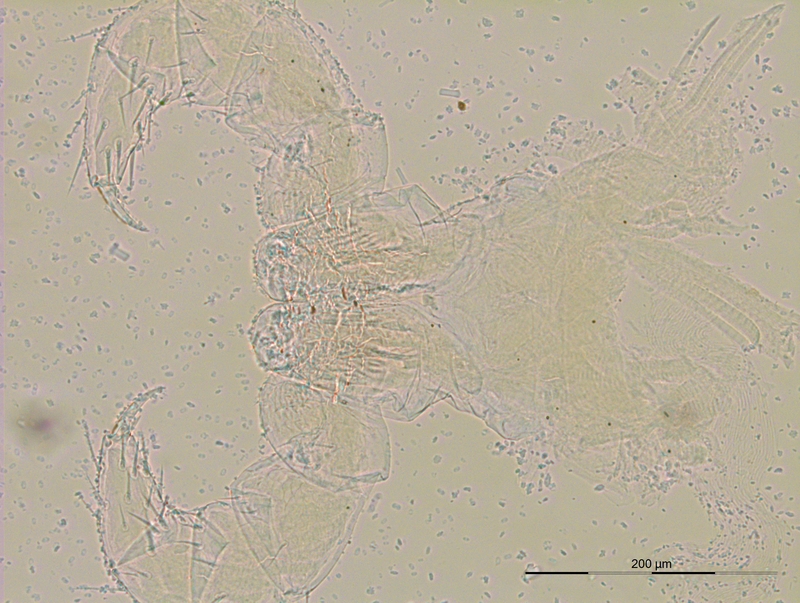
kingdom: Animalia
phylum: Arthropoda
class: Diplopoda
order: Julida
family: Rhopaloiulidae
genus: Rhopaloiulus
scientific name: Rhopaloiulus cameratanus
